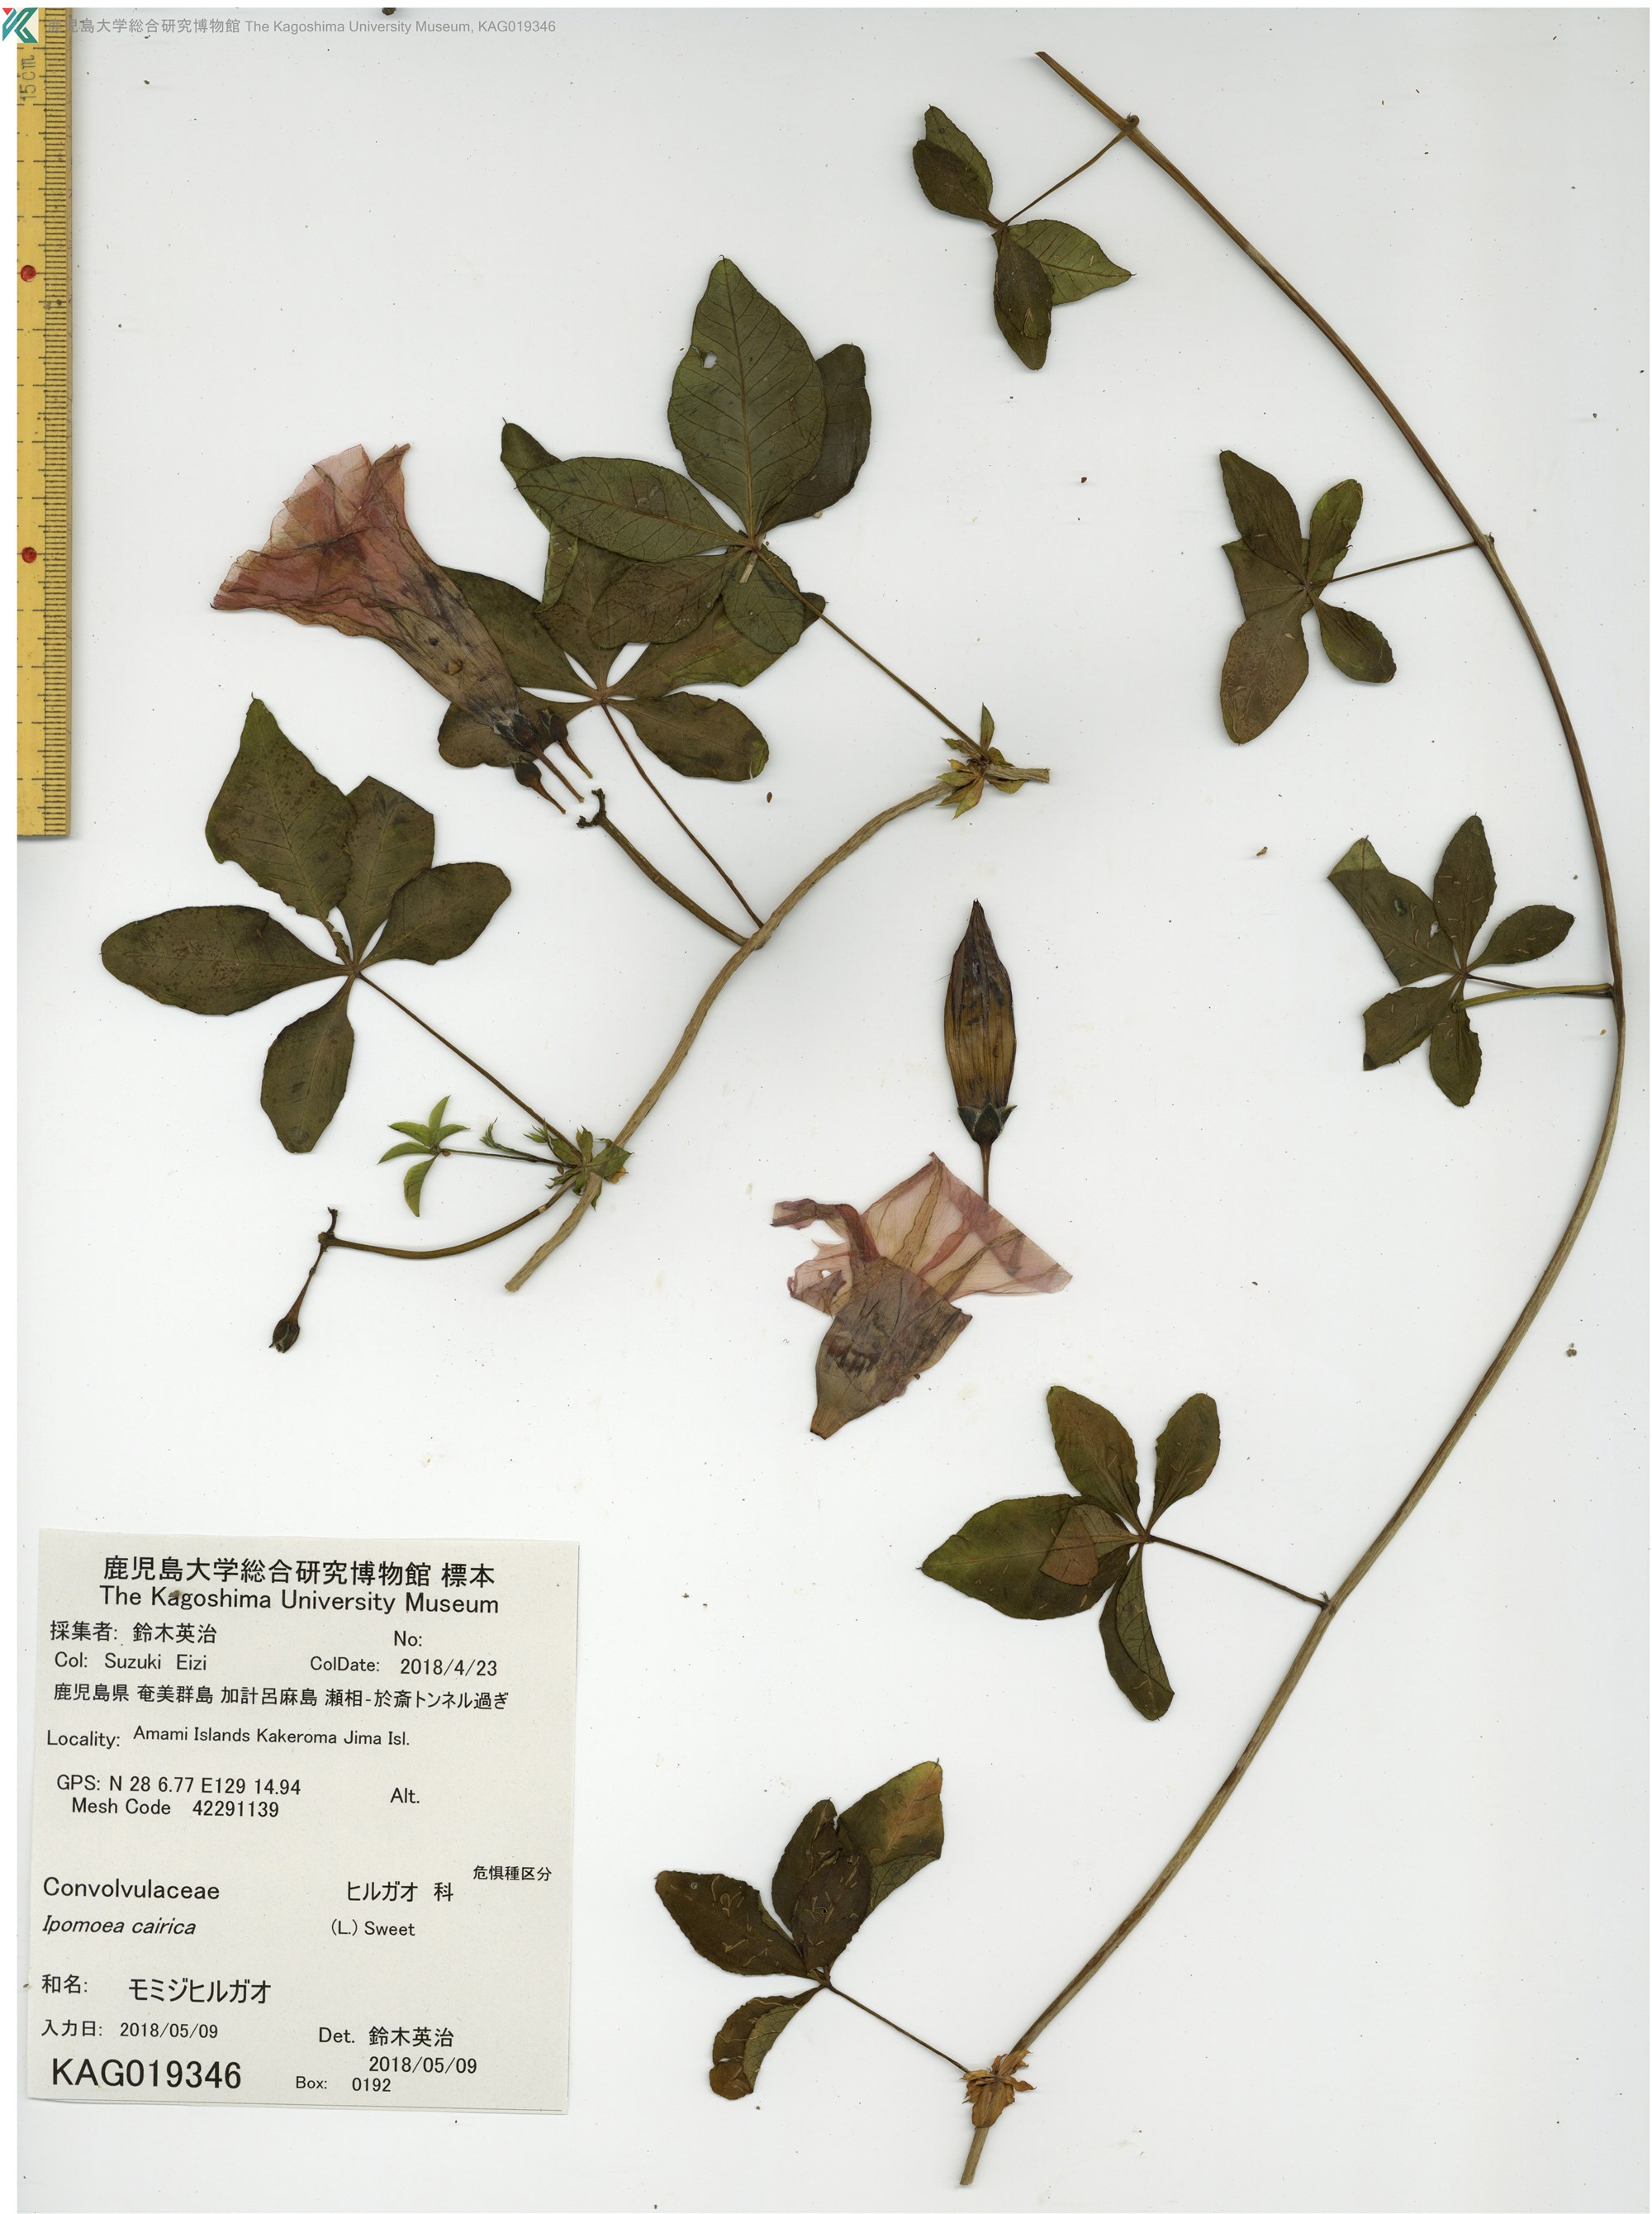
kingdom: Plantae
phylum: Tracheophyta
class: Magnoliopsida
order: Solanales
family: Convolvulaceae
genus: Ipomoea
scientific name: Ipomoea cairica
